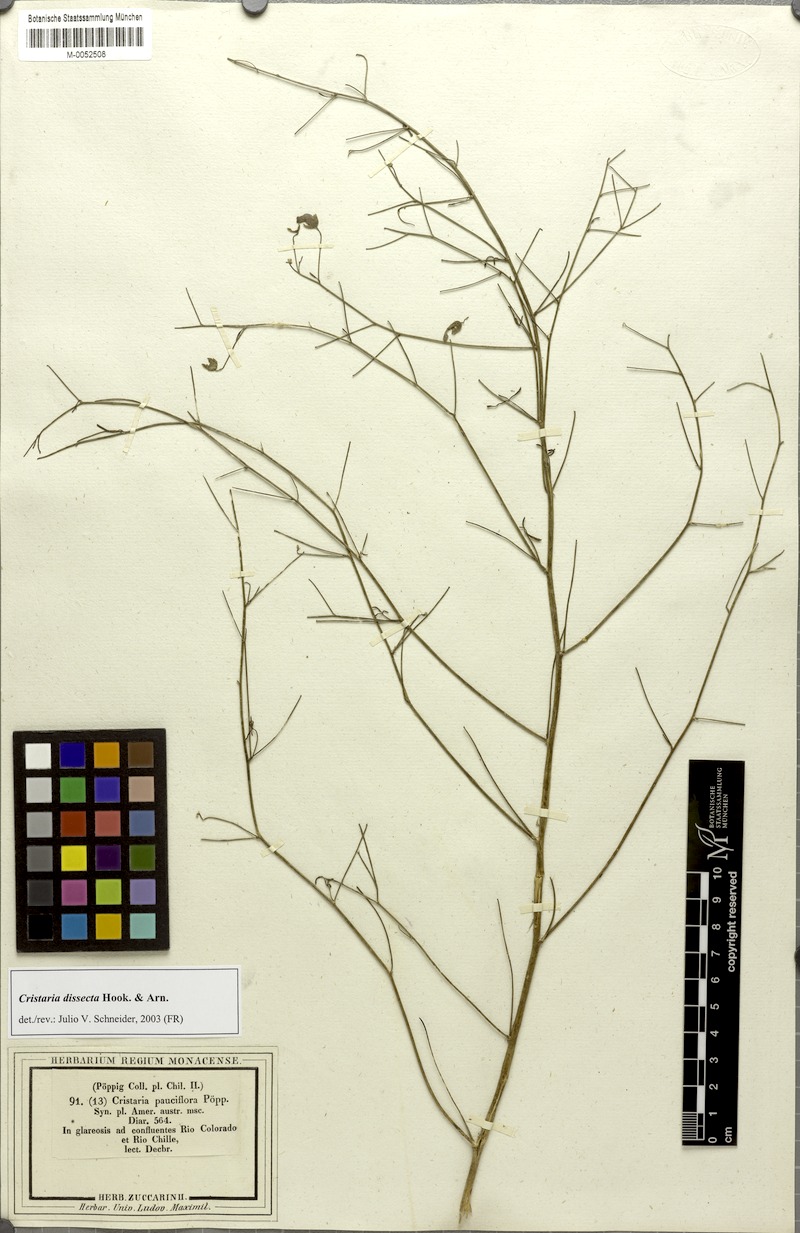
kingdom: Plantae
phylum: Tracheophyta
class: Magnoliopsida
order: Malvales
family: Malvaceae
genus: Cristaria
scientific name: Cristaria dissecta
